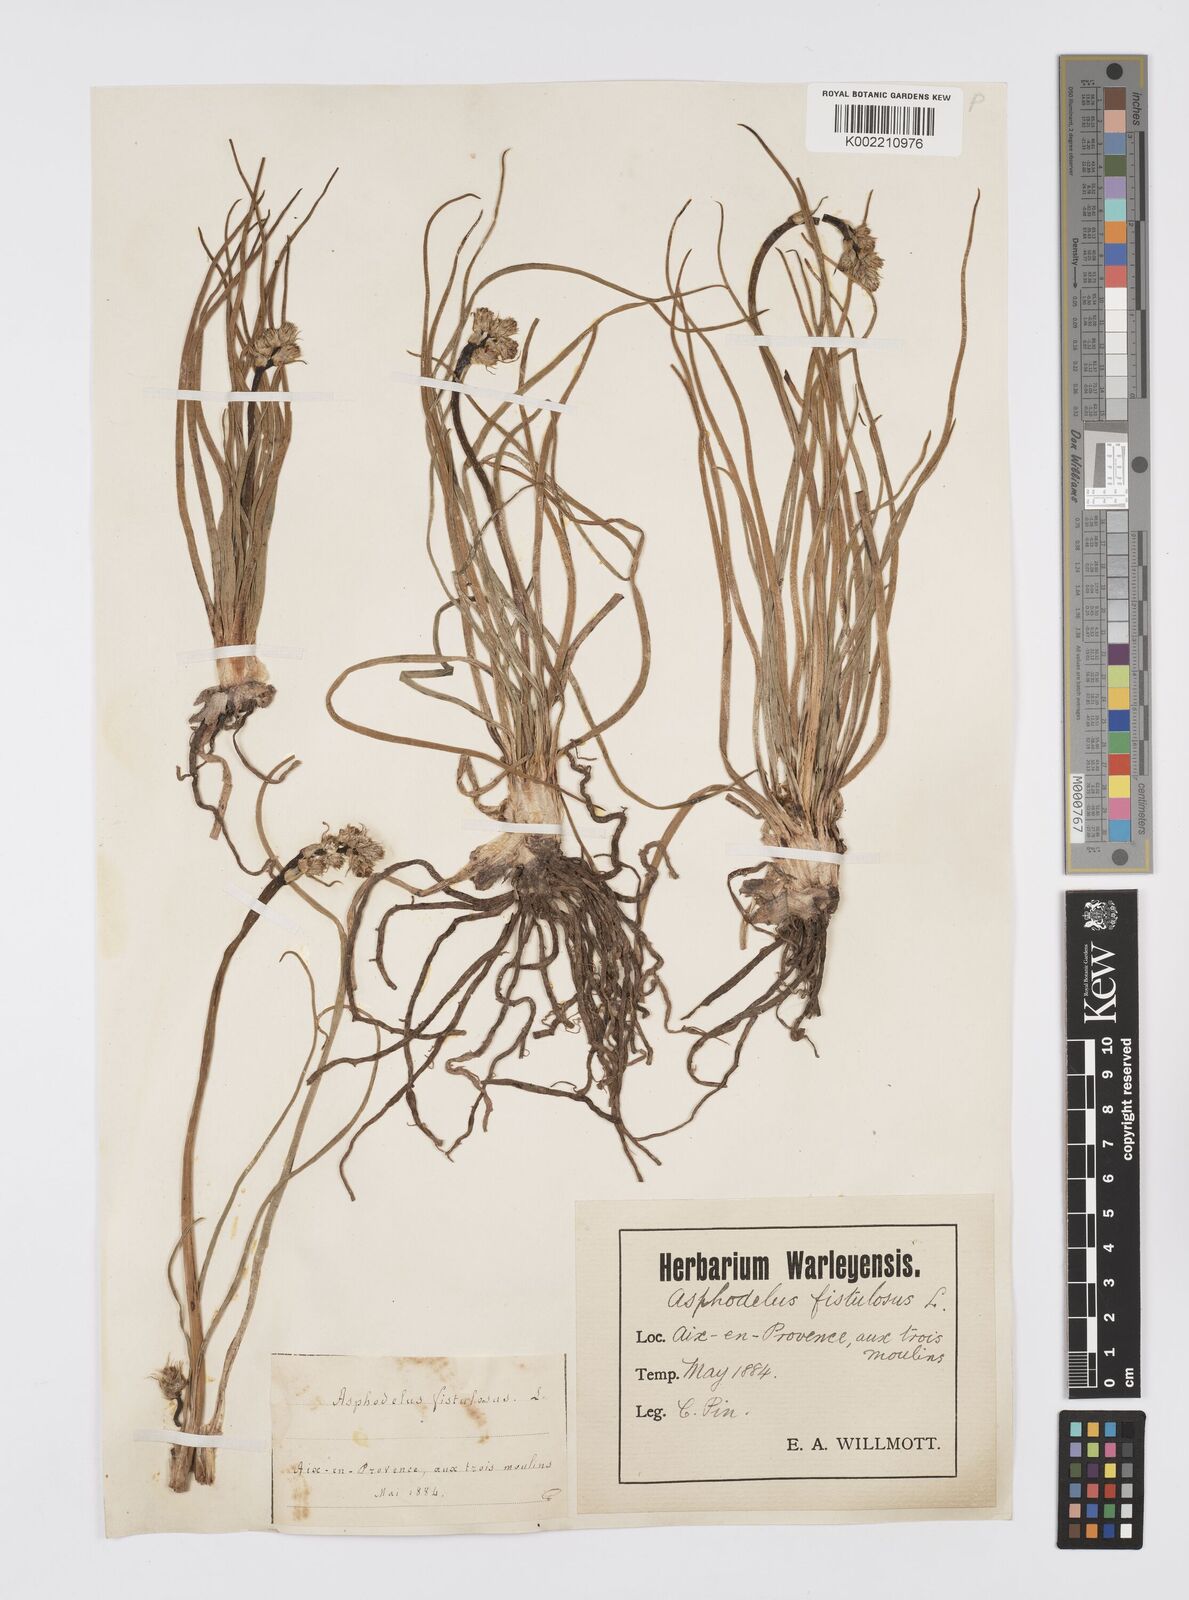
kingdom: Plantae
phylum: Tracheophyta
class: Liliopsida
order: Asparagales
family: Asphodelaceae
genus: Asphodelus
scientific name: Asphodelus fistulosus
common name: Onionweed
